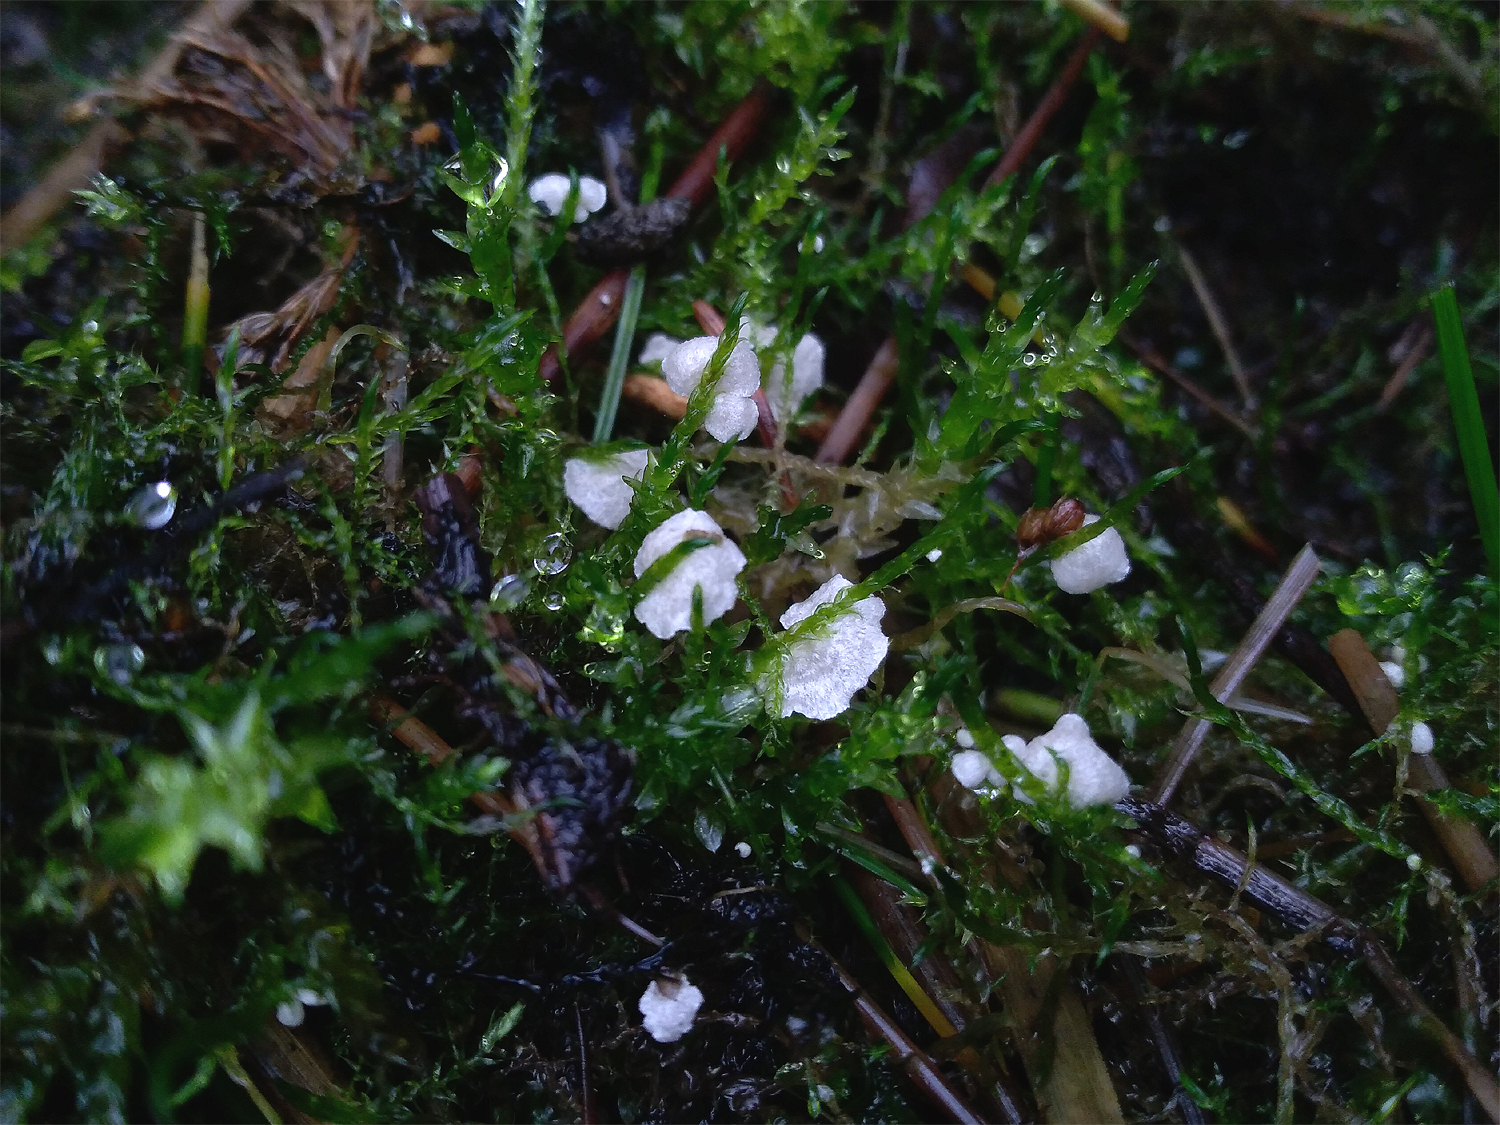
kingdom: Fungi
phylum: Basidiomycota
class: Agaricomycetes
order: Agaricales
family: Hygrophoraceae
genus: Arrhenia
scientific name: Arrhenia retiruga
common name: lille fontænehat
